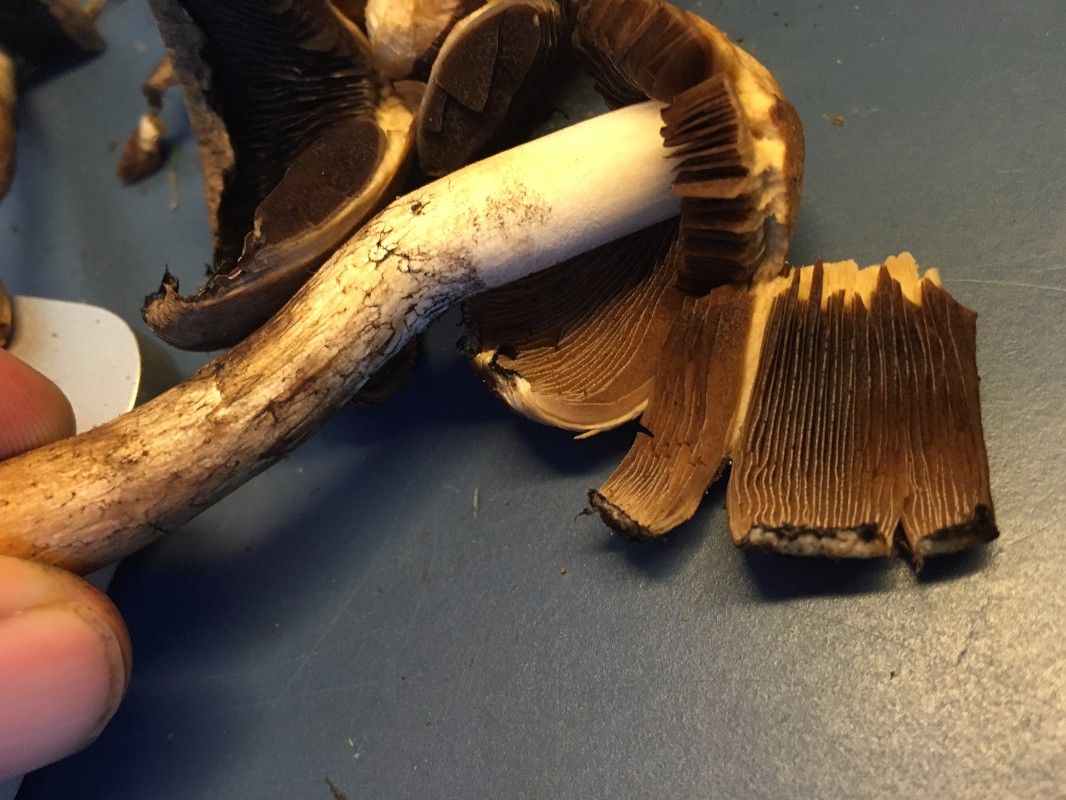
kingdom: Fungi
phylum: Basidiomycota
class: Agaricomycetes
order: Agaricales
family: Psathyrellaceae
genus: Lacrymaria
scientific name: Lacrymaria lacrymabunda
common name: grædende mørkhat
